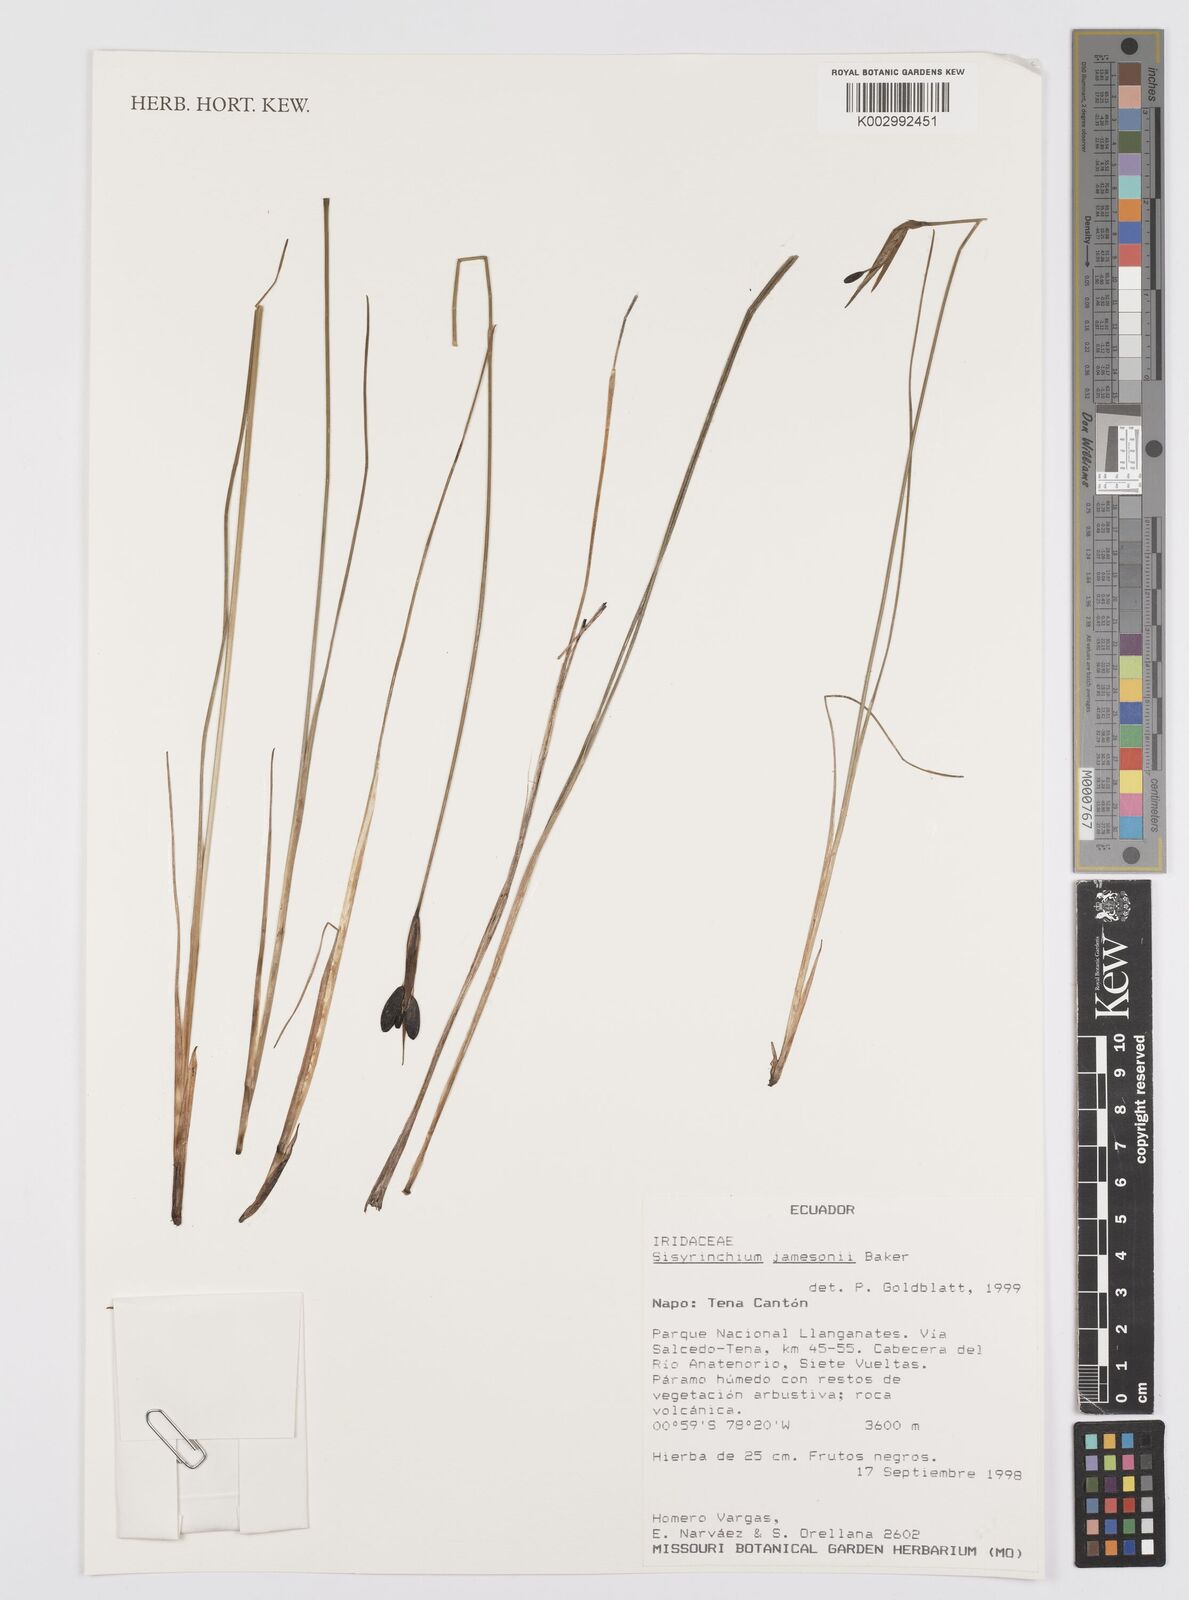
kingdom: Plantae
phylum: Tracheophyta
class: Liliopsida
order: Asparagales
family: Iridaceae
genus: Sisyrinchium
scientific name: Sisyrinchium jamesonii
